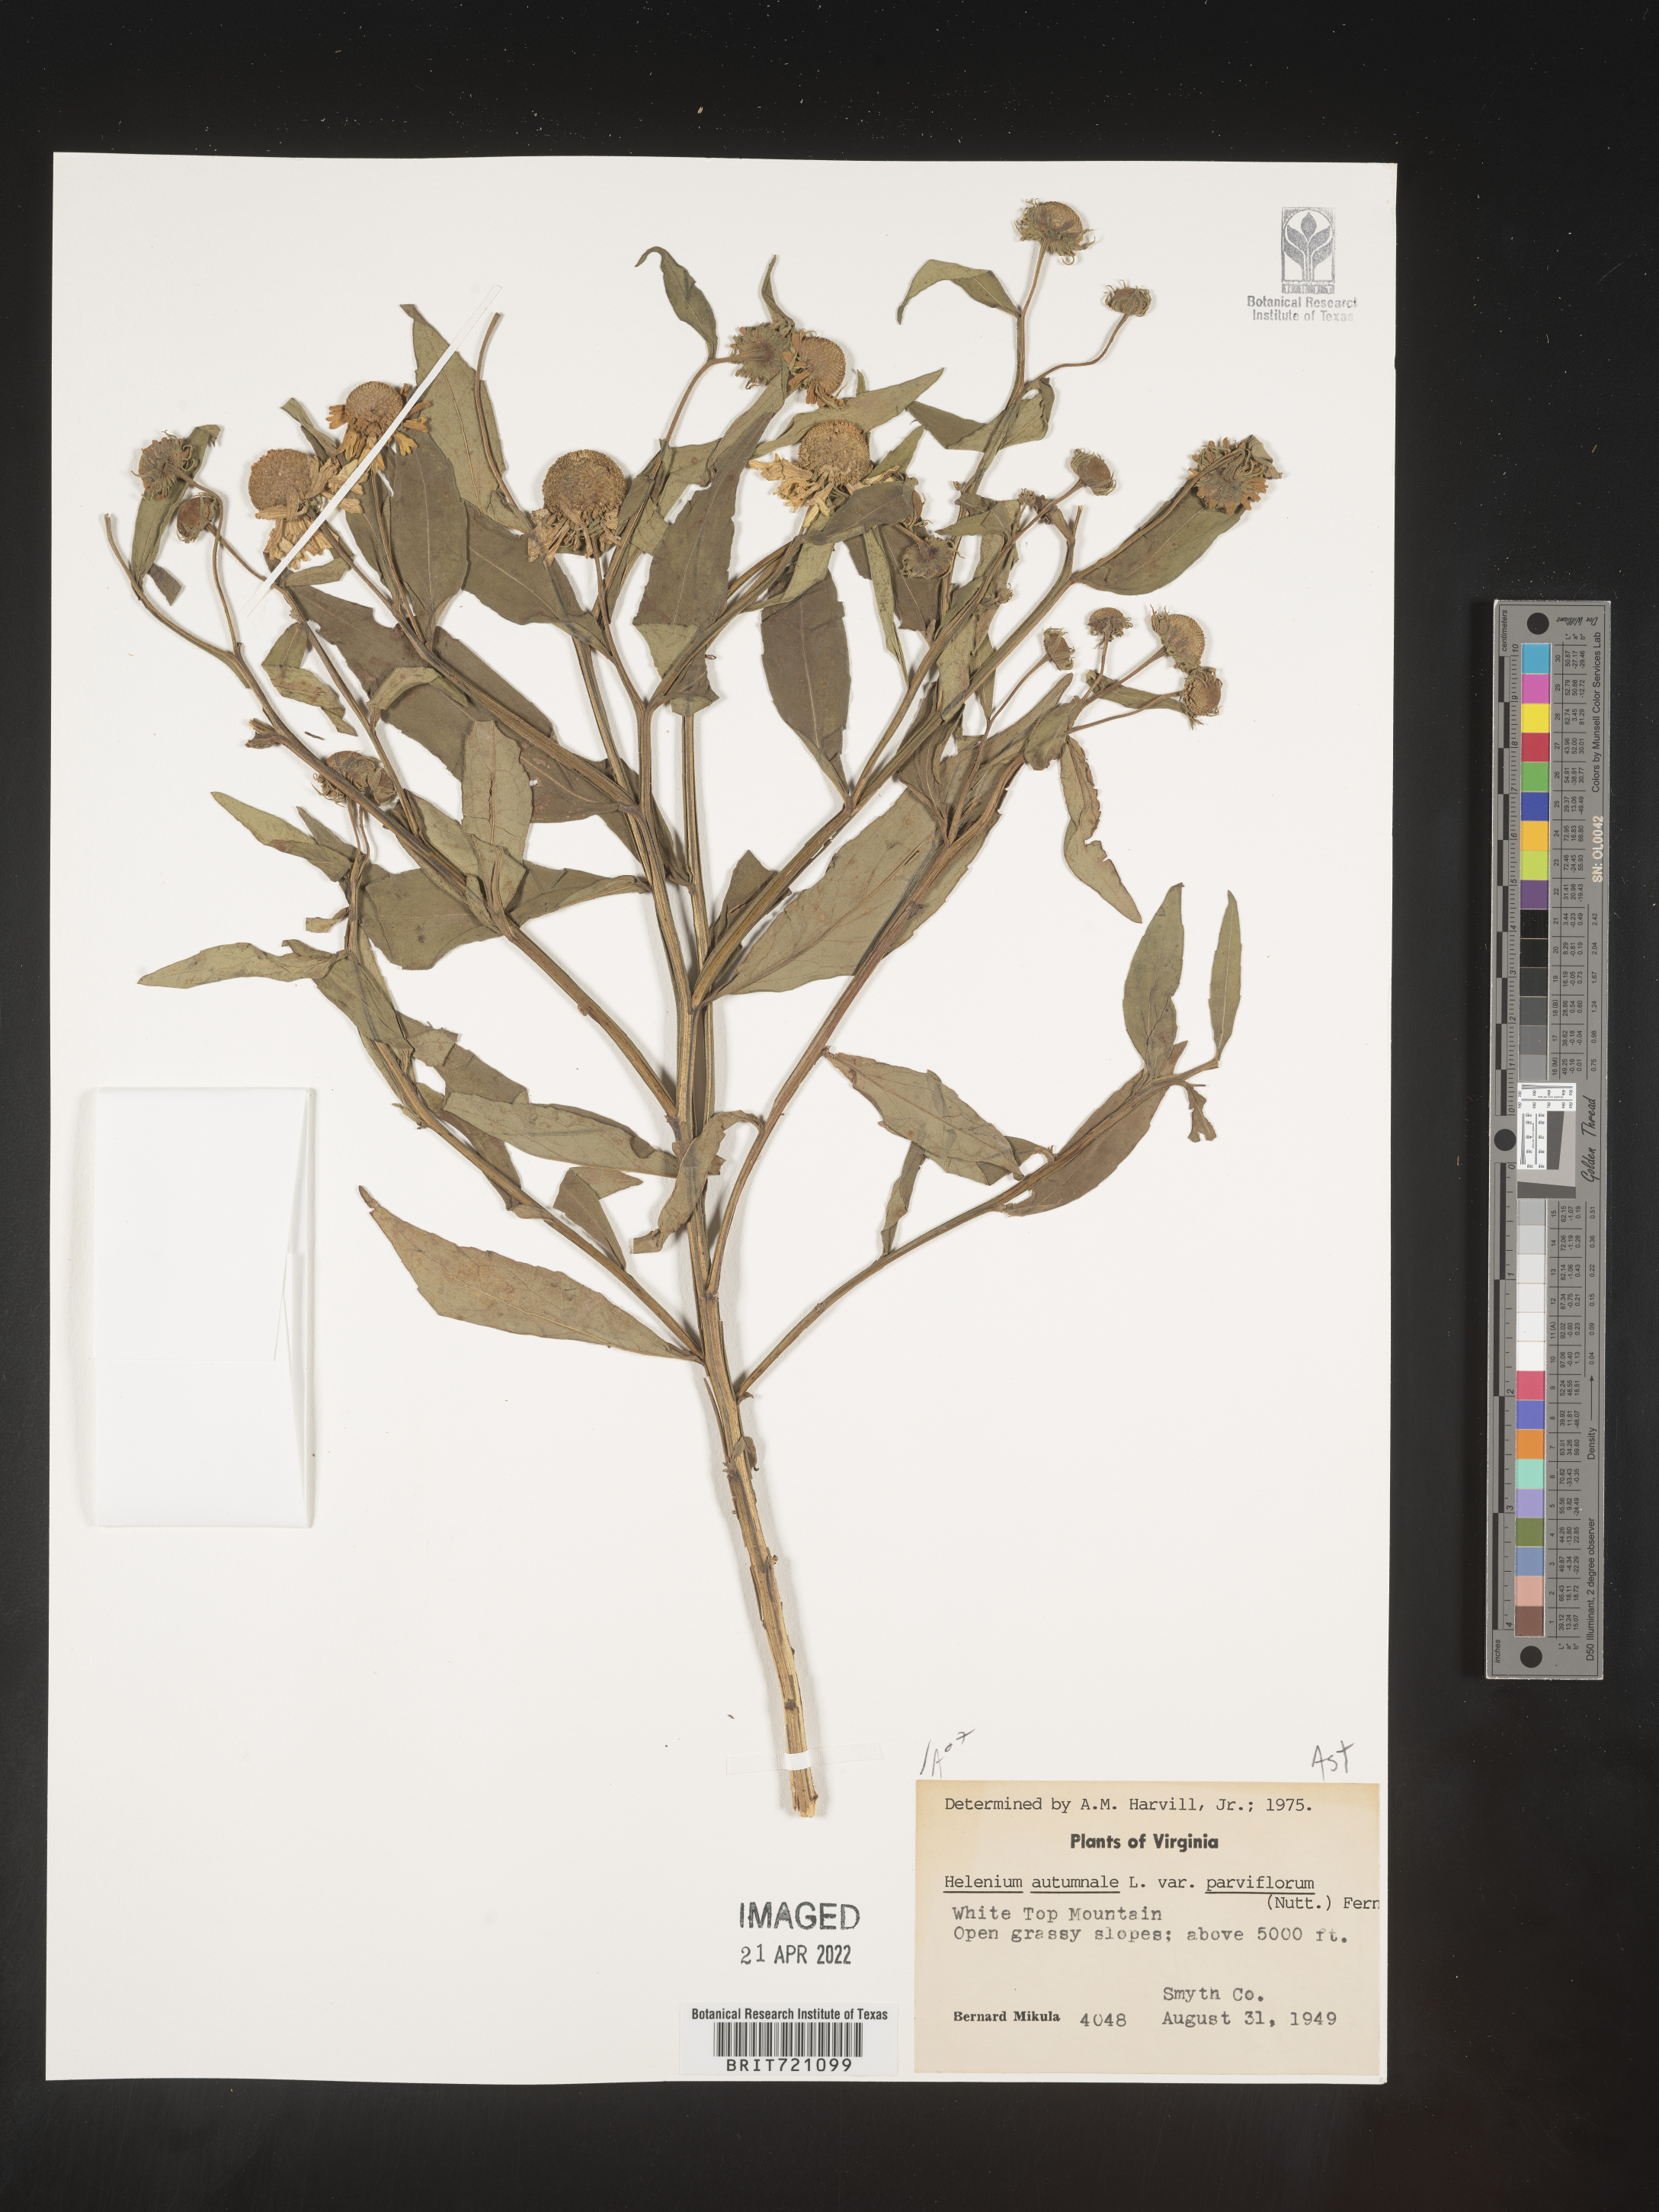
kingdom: Plantae
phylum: Tracheophyta
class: Magnoliopsida
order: Asterales
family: Asteraceae
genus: Helenium
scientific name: Helenium autumnale
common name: Sneezeweed
